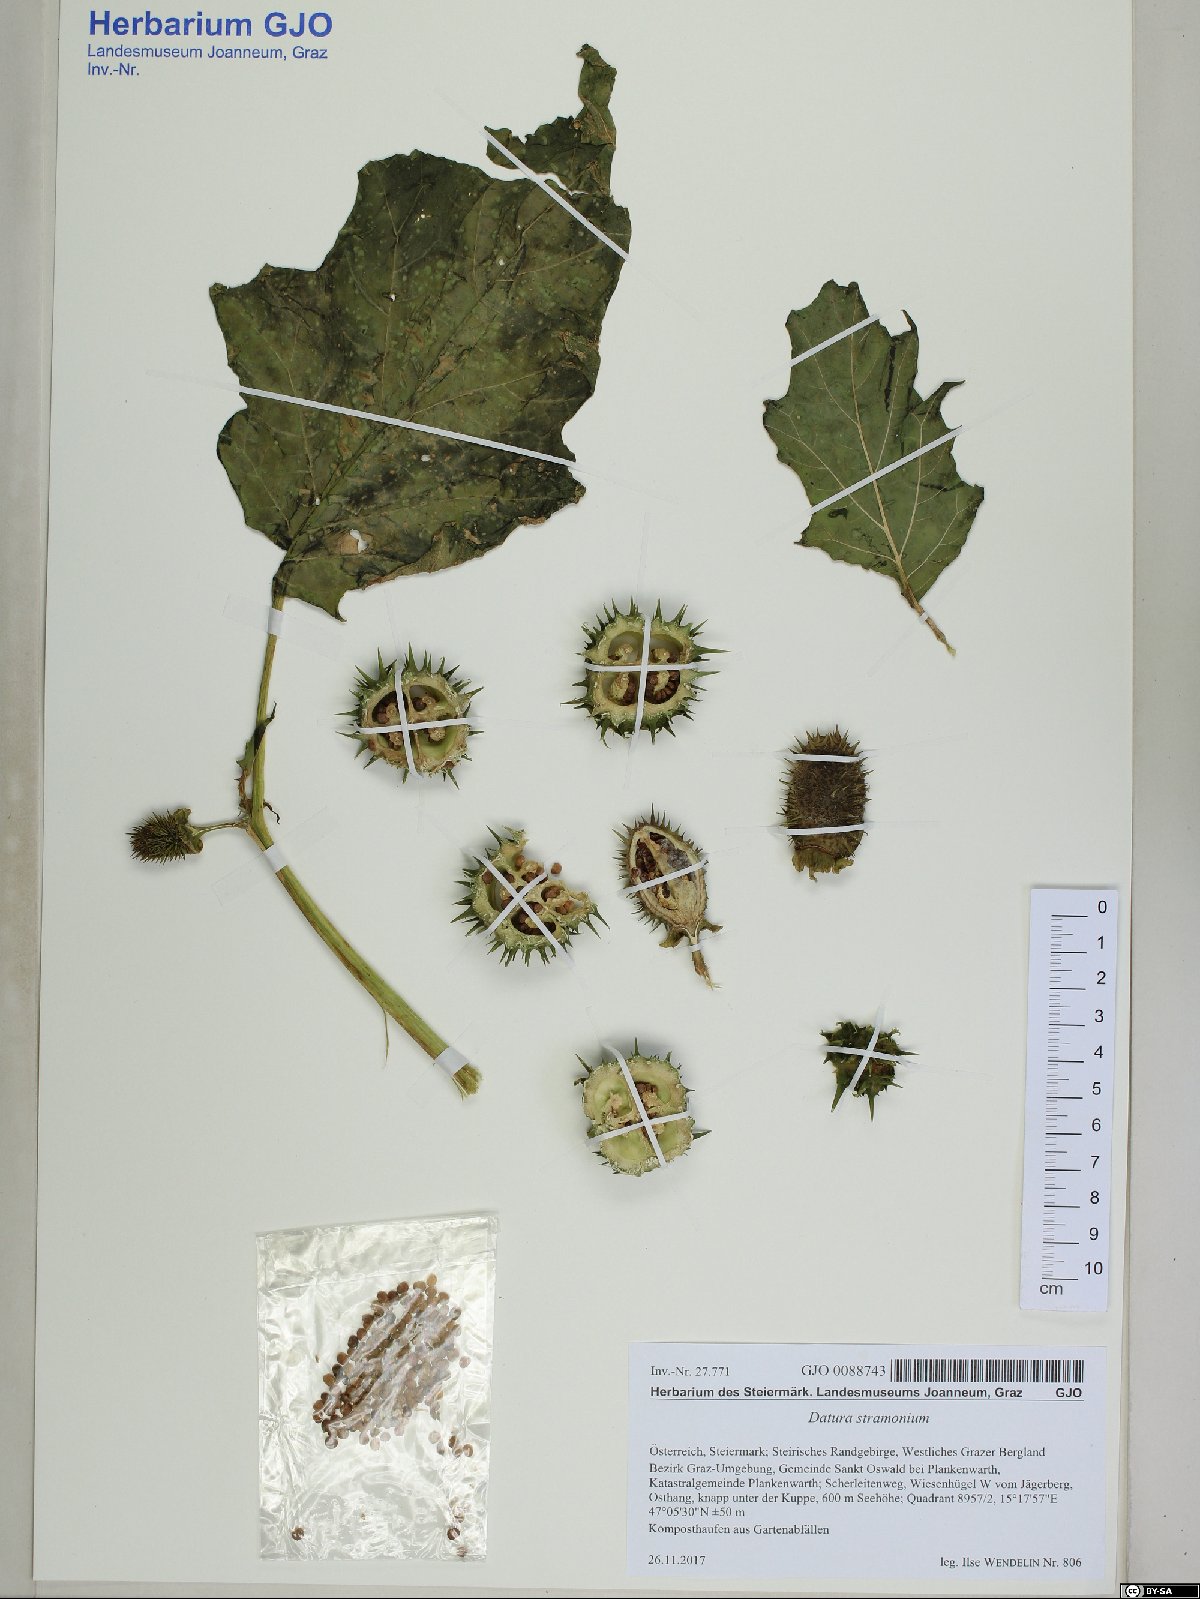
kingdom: Plantae
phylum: Tracheophyta
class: Magnoliopsida
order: Solanales
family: Solanaceae
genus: Datura
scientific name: Datura stramonium
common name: Thorn-apple
